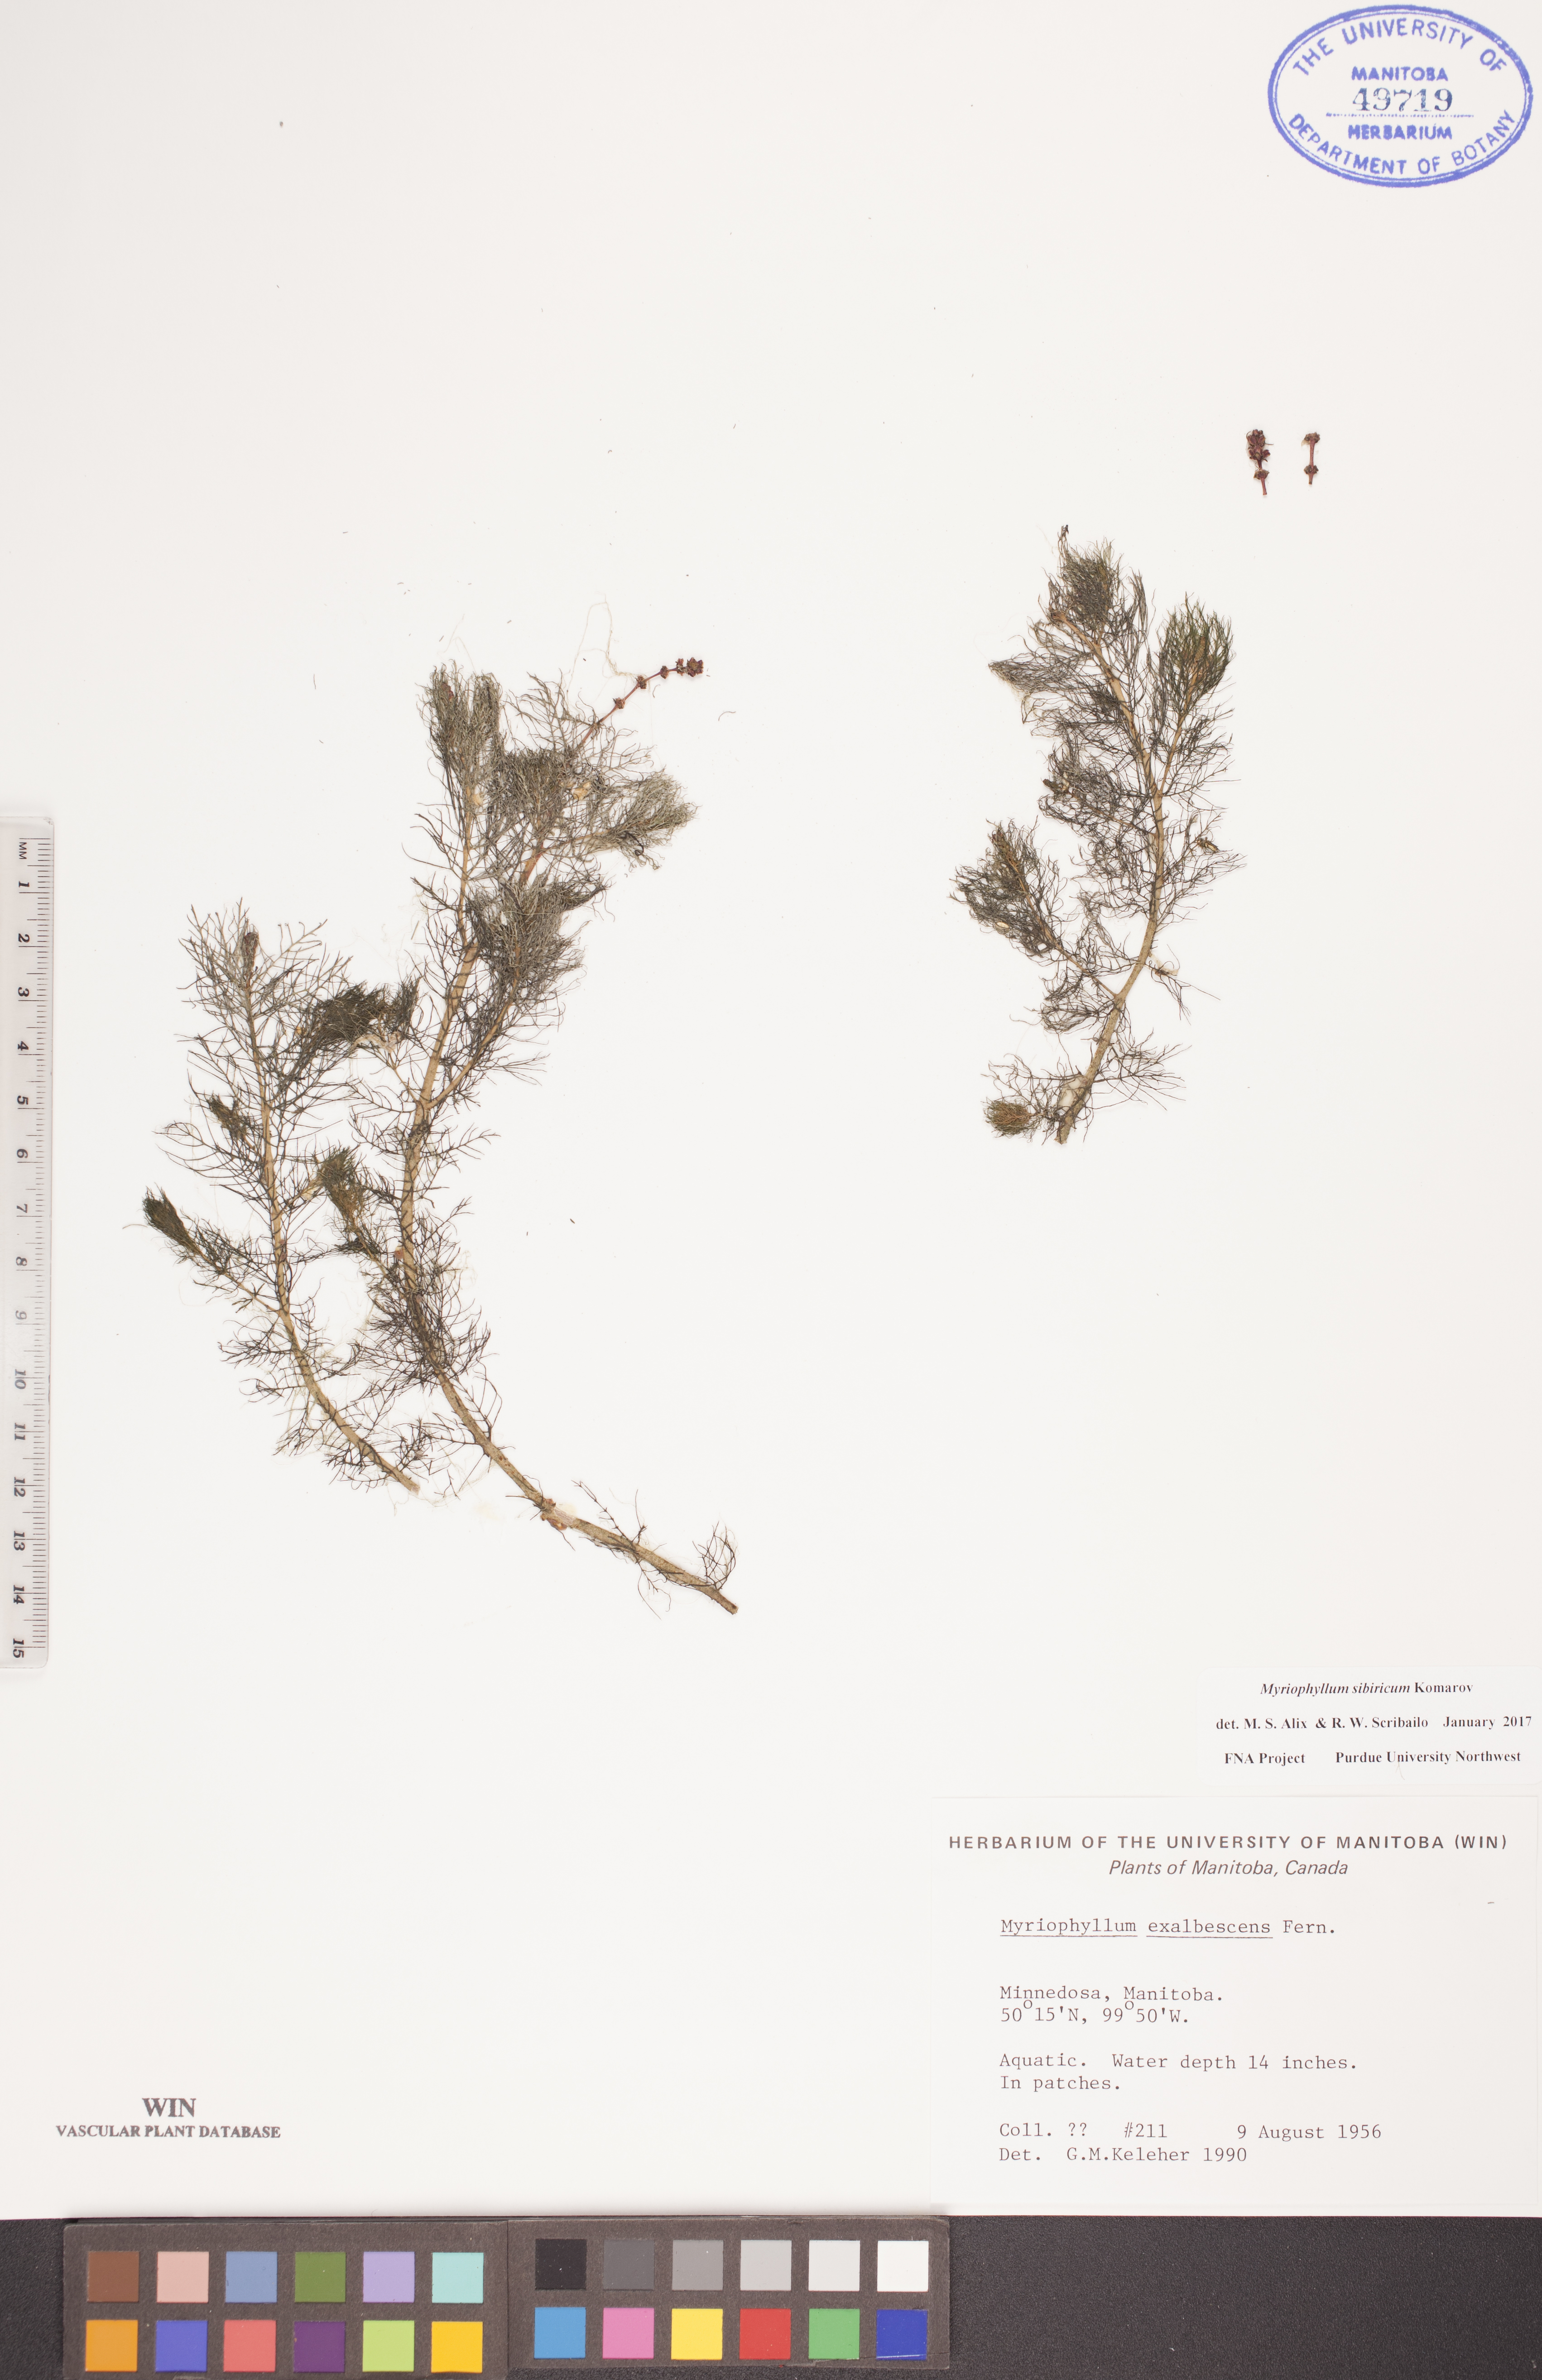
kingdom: Plantae
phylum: Tracheophyta
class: Magnoliopsida
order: Saxifragales
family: Haloragaceae
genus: Myriophyllum
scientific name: Myriophyllum sibiricum
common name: Siberian water-milfoil
